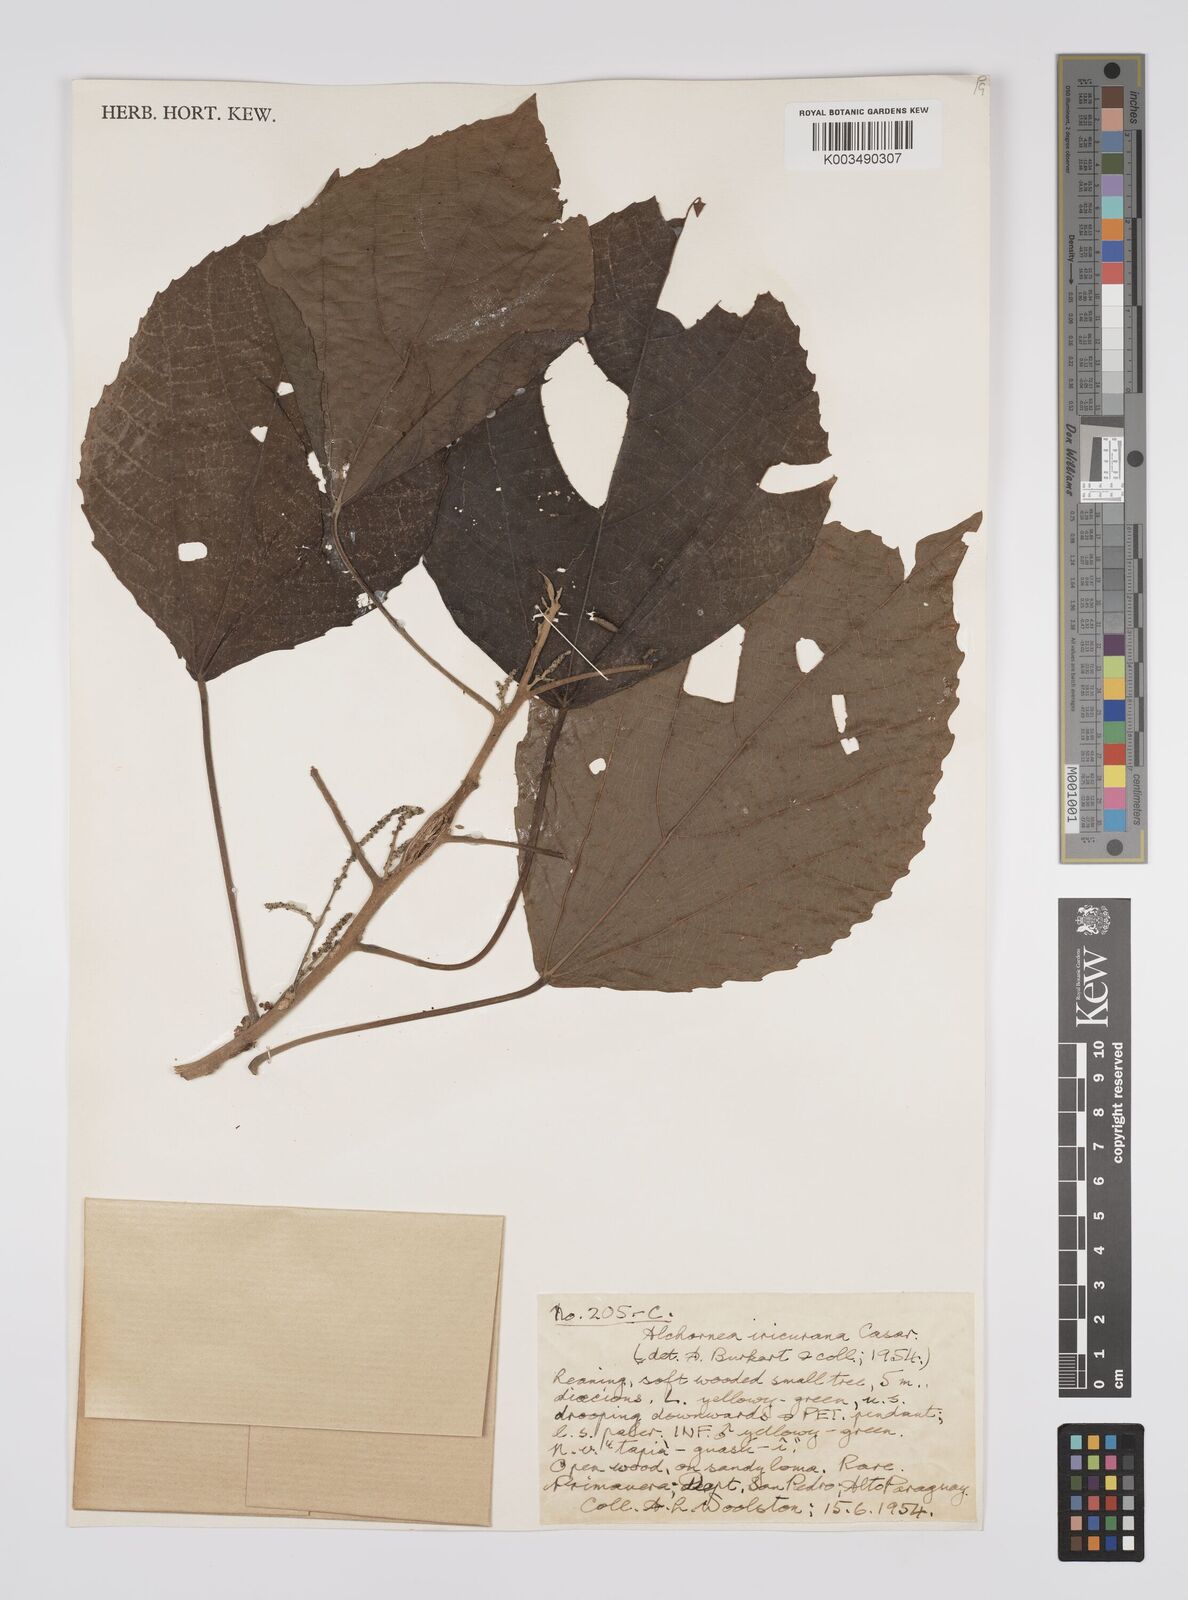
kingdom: Plantae
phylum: Tracheophyta
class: Magnoliopsida
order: Malpighiales
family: Euphorbiaceae
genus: Alchornea
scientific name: Alchornea glandulosa
